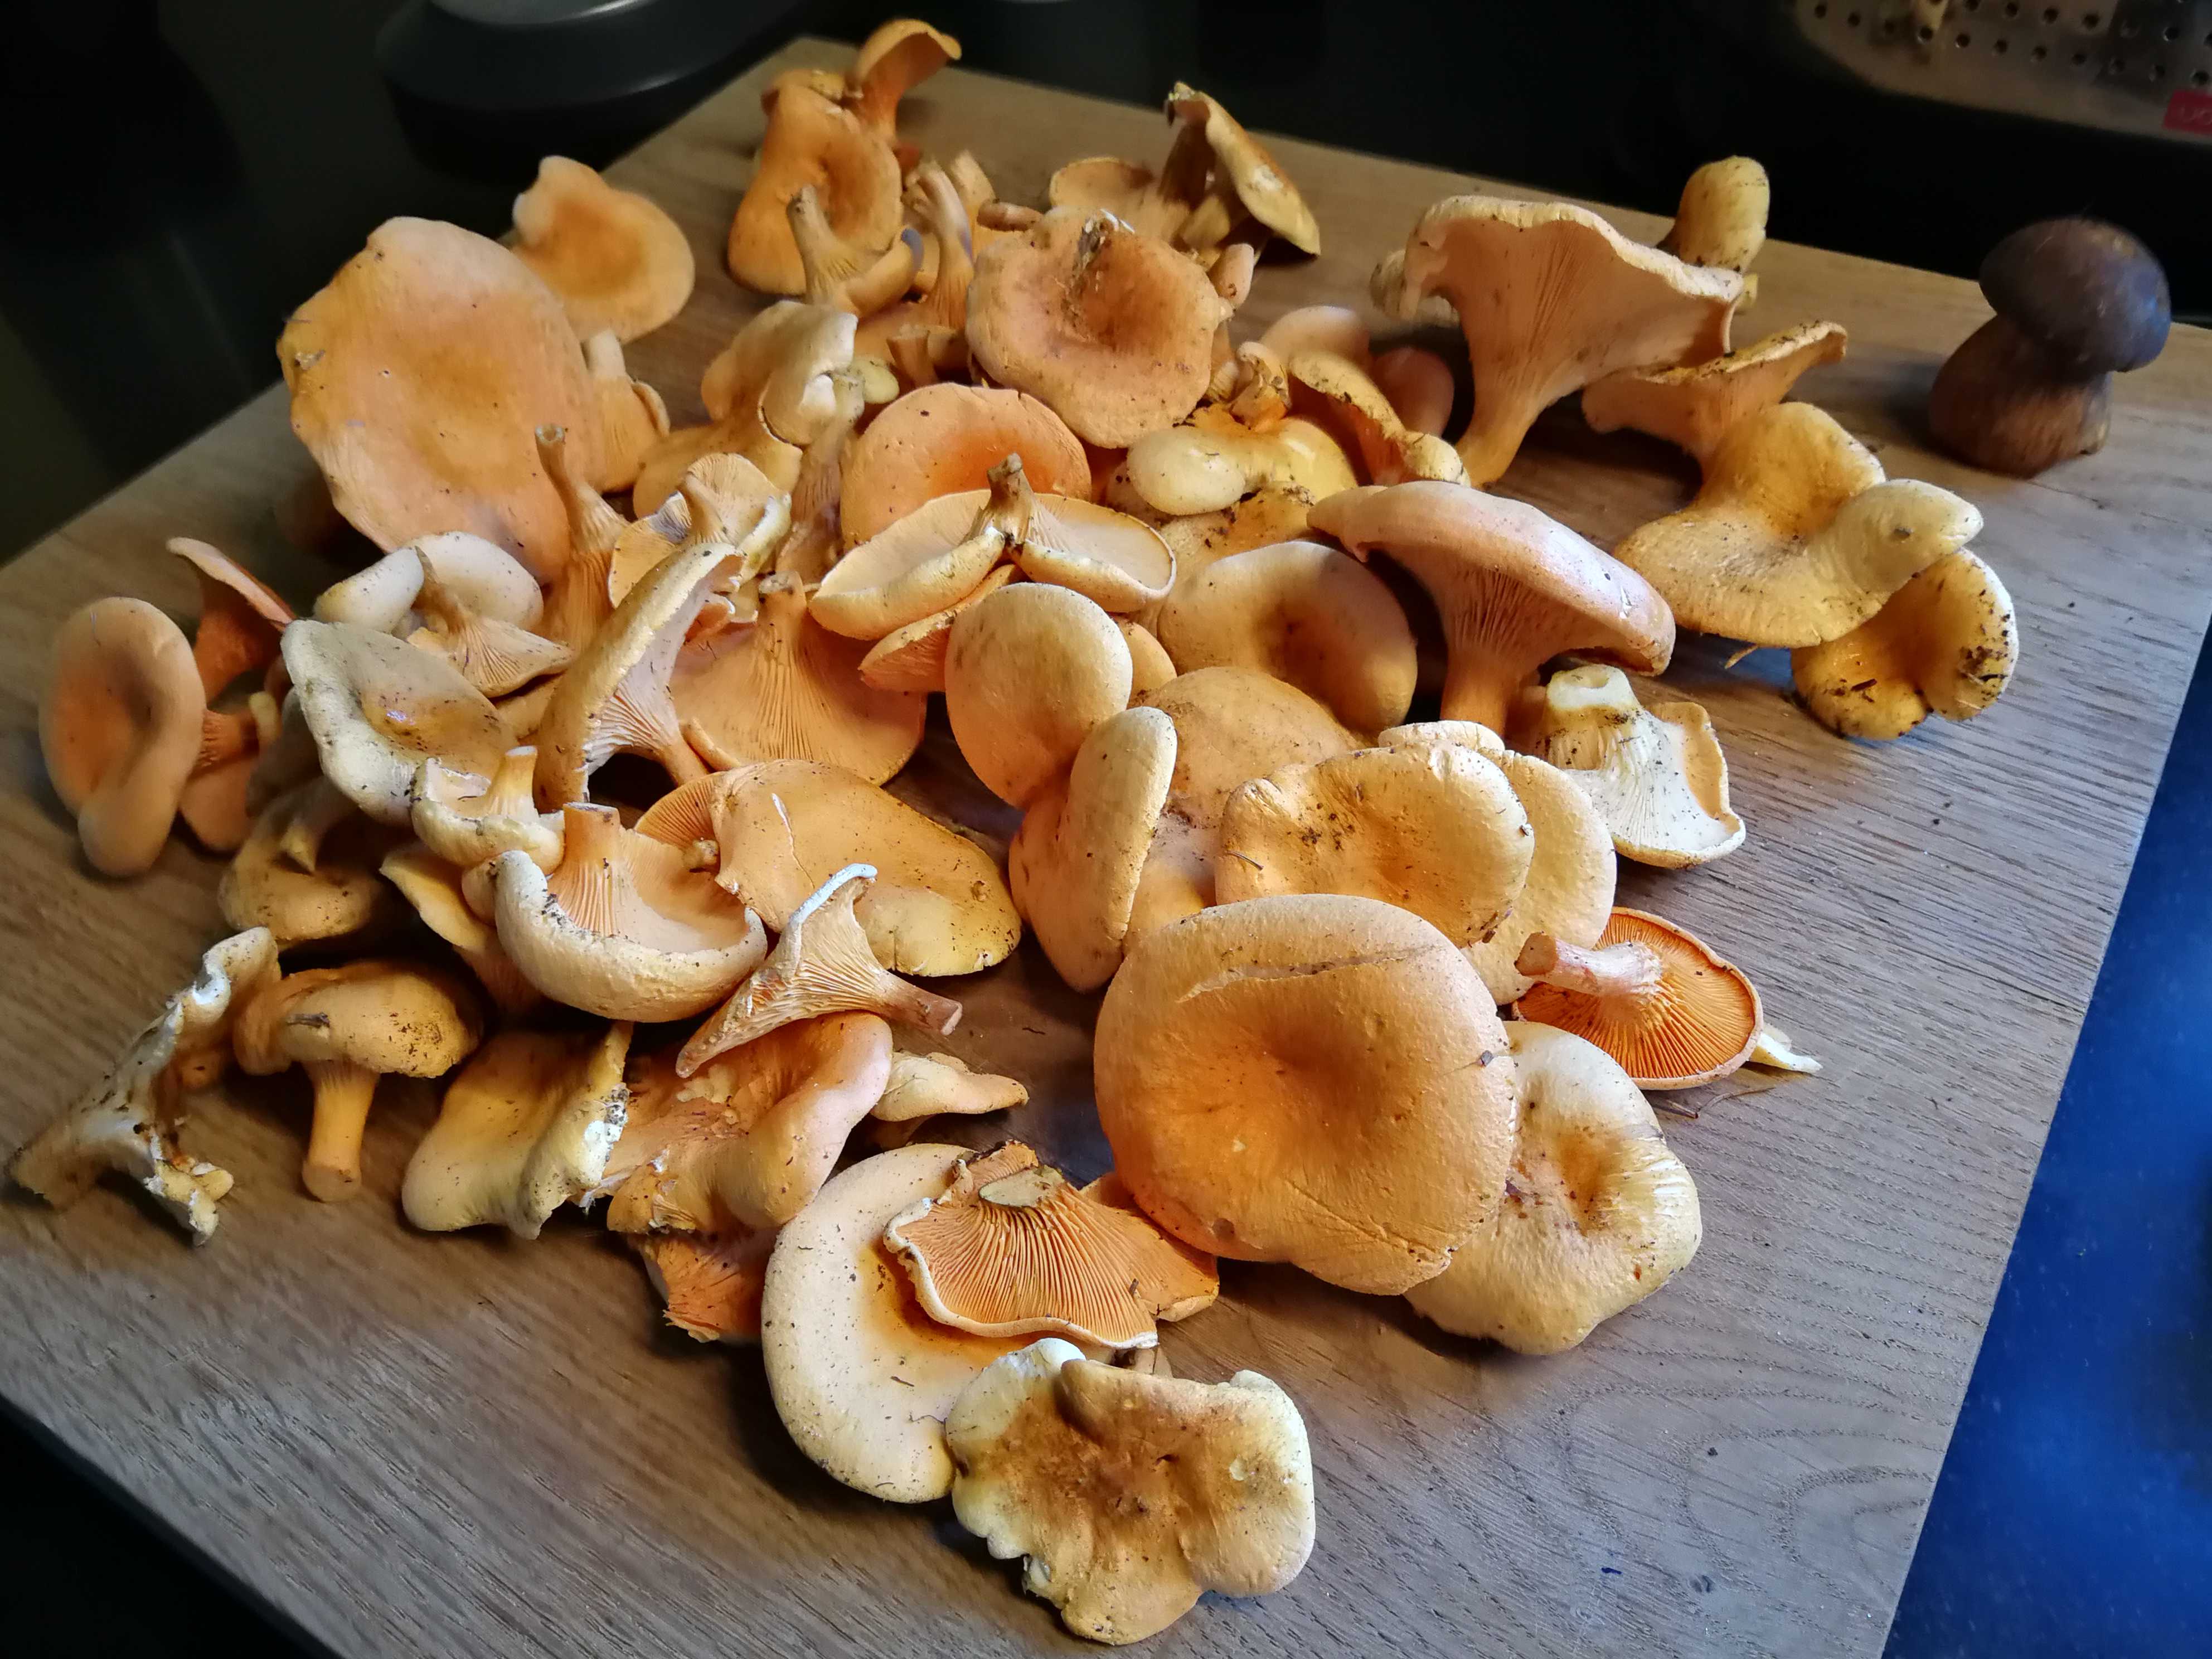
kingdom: Fungi
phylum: Basidiomycota
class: Agaricomycetes
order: Boletales
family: Hygrophoropsidaceae
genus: Hygrophoropsis
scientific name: Hygrophoropsis aurantiaca
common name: almindelig orangekantarel
